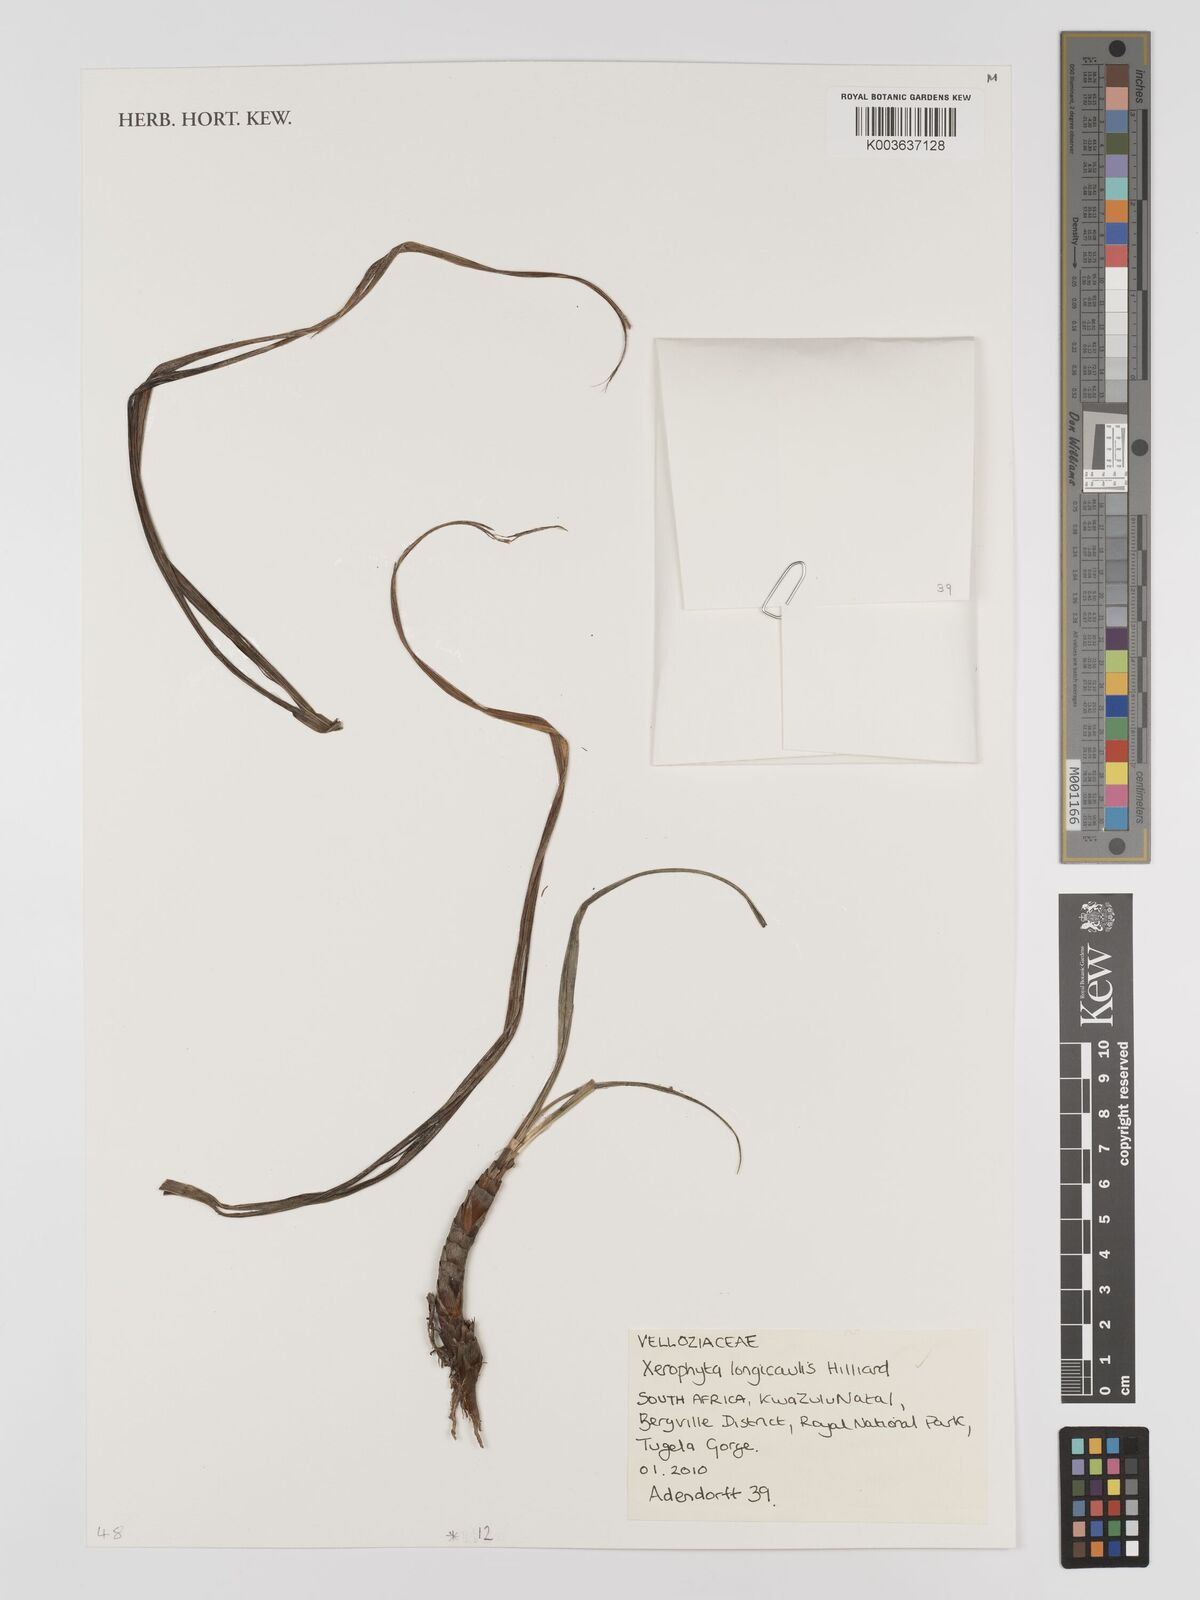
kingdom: Plantae
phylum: Tracheophyta
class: Liliopsida
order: Pandanales
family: Velloziaceae
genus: Xerophyta
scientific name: Xerophyta longicaulis
